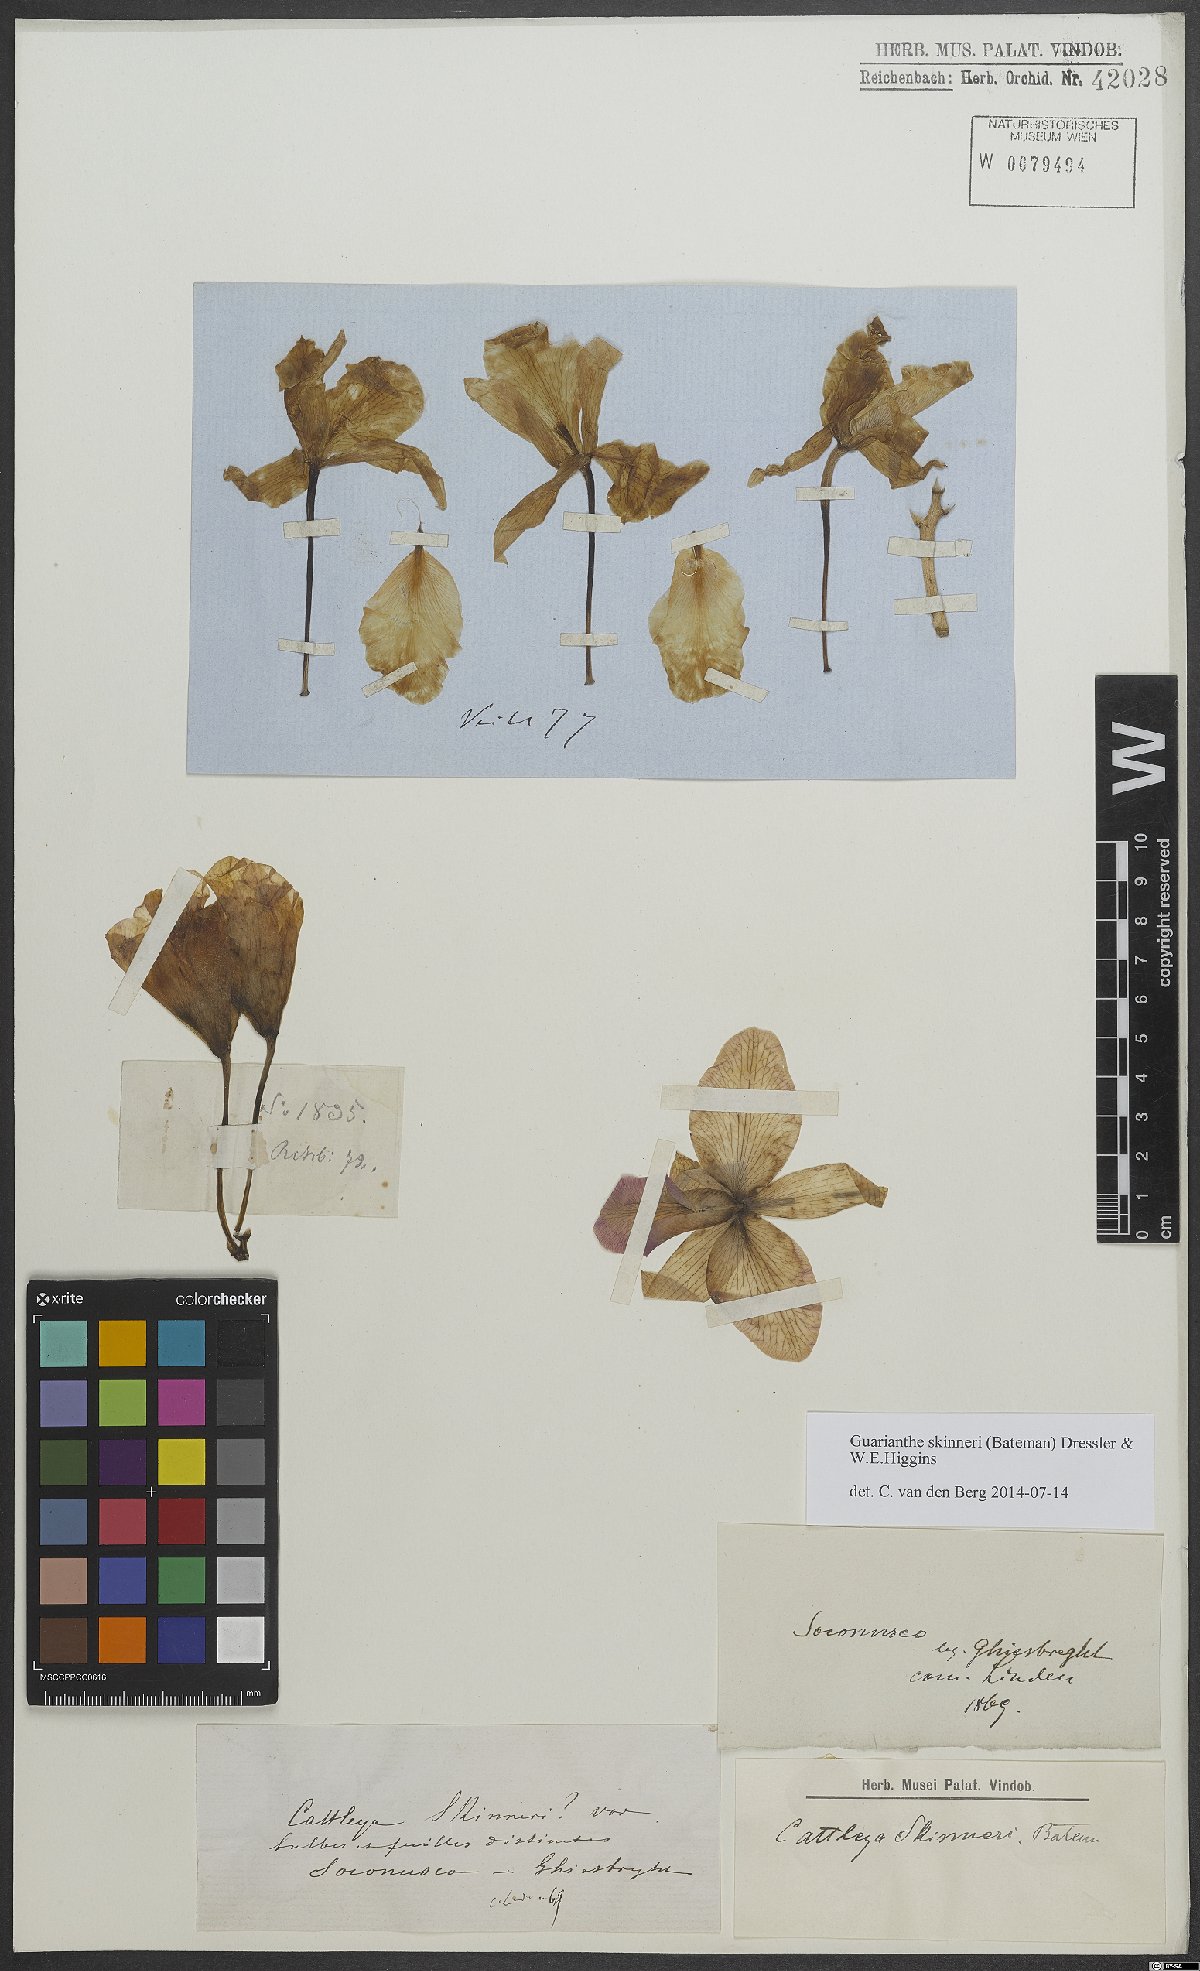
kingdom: Plantae
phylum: Tracheophyta
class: Liliopsida
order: Asparagales
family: Orchidaceae
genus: Guarianthe
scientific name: Guarianthe skinneri
